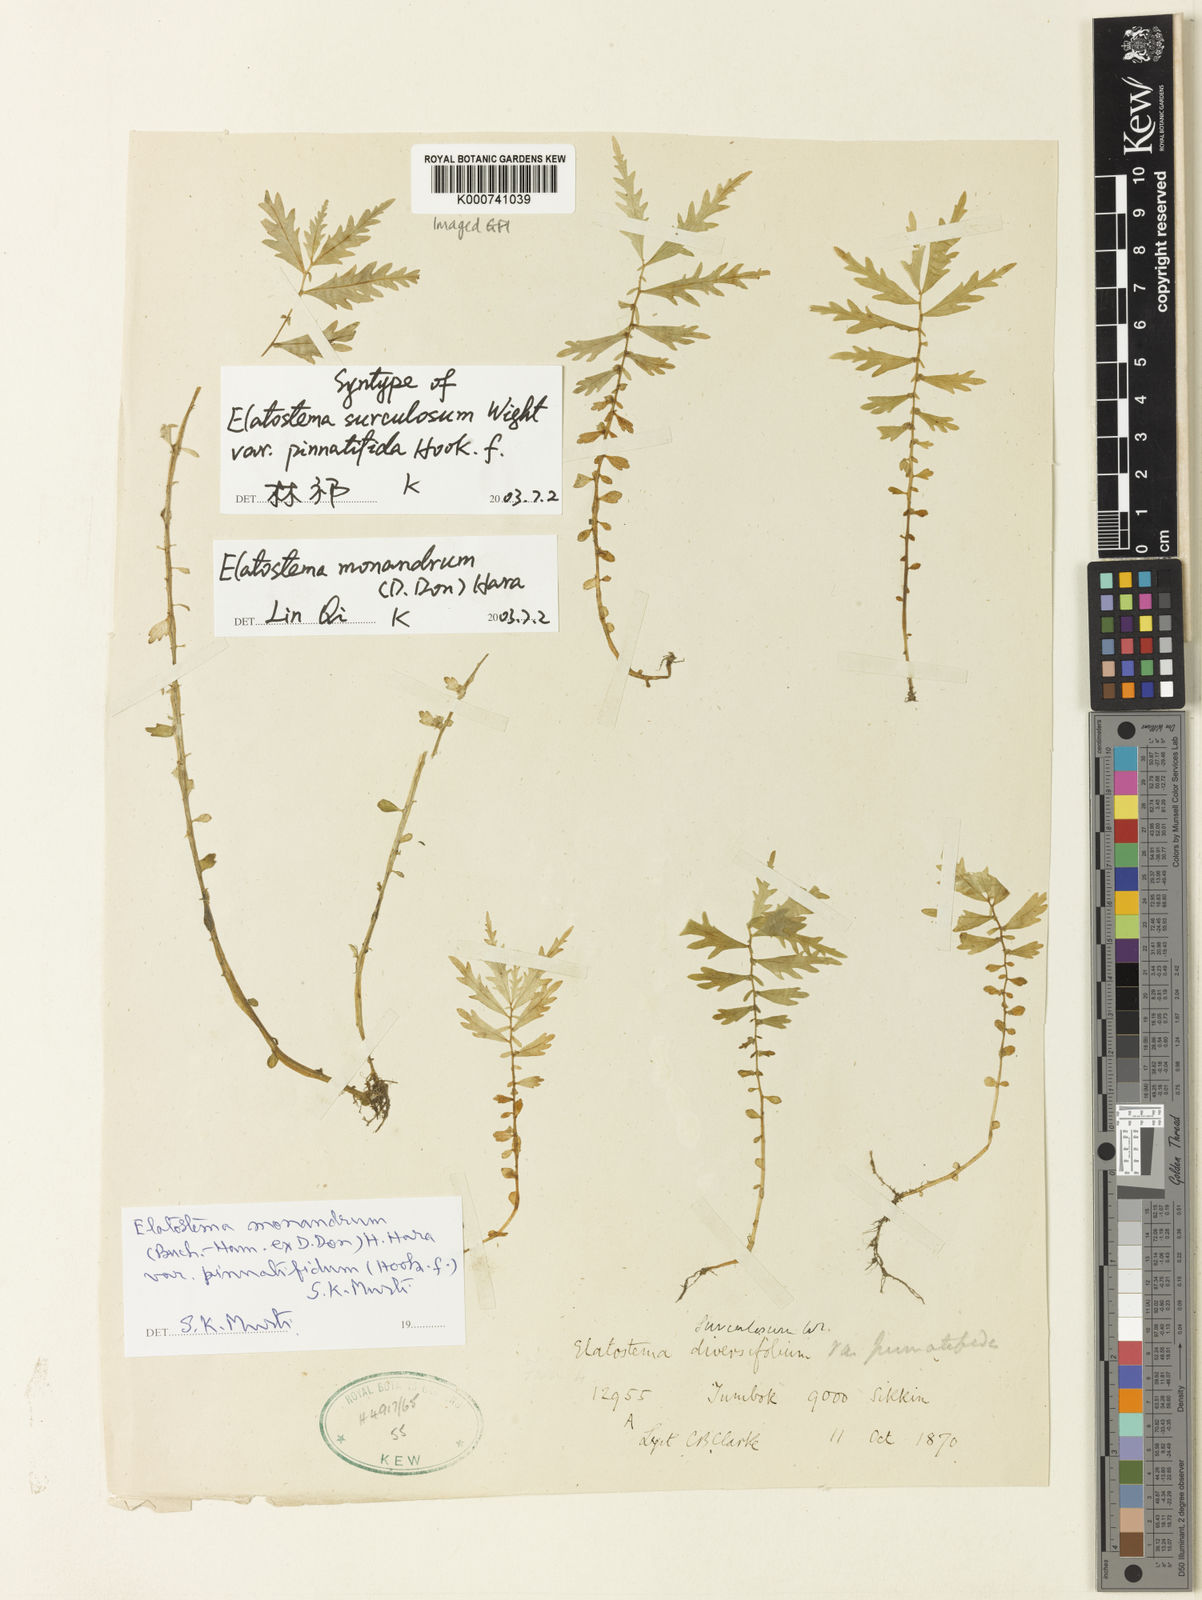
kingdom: Plantae
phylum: Tracheophyta
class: Magnoliopsida
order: Rosales
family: Urticaceae
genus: Elatostema
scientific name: Elatostema monandrum
